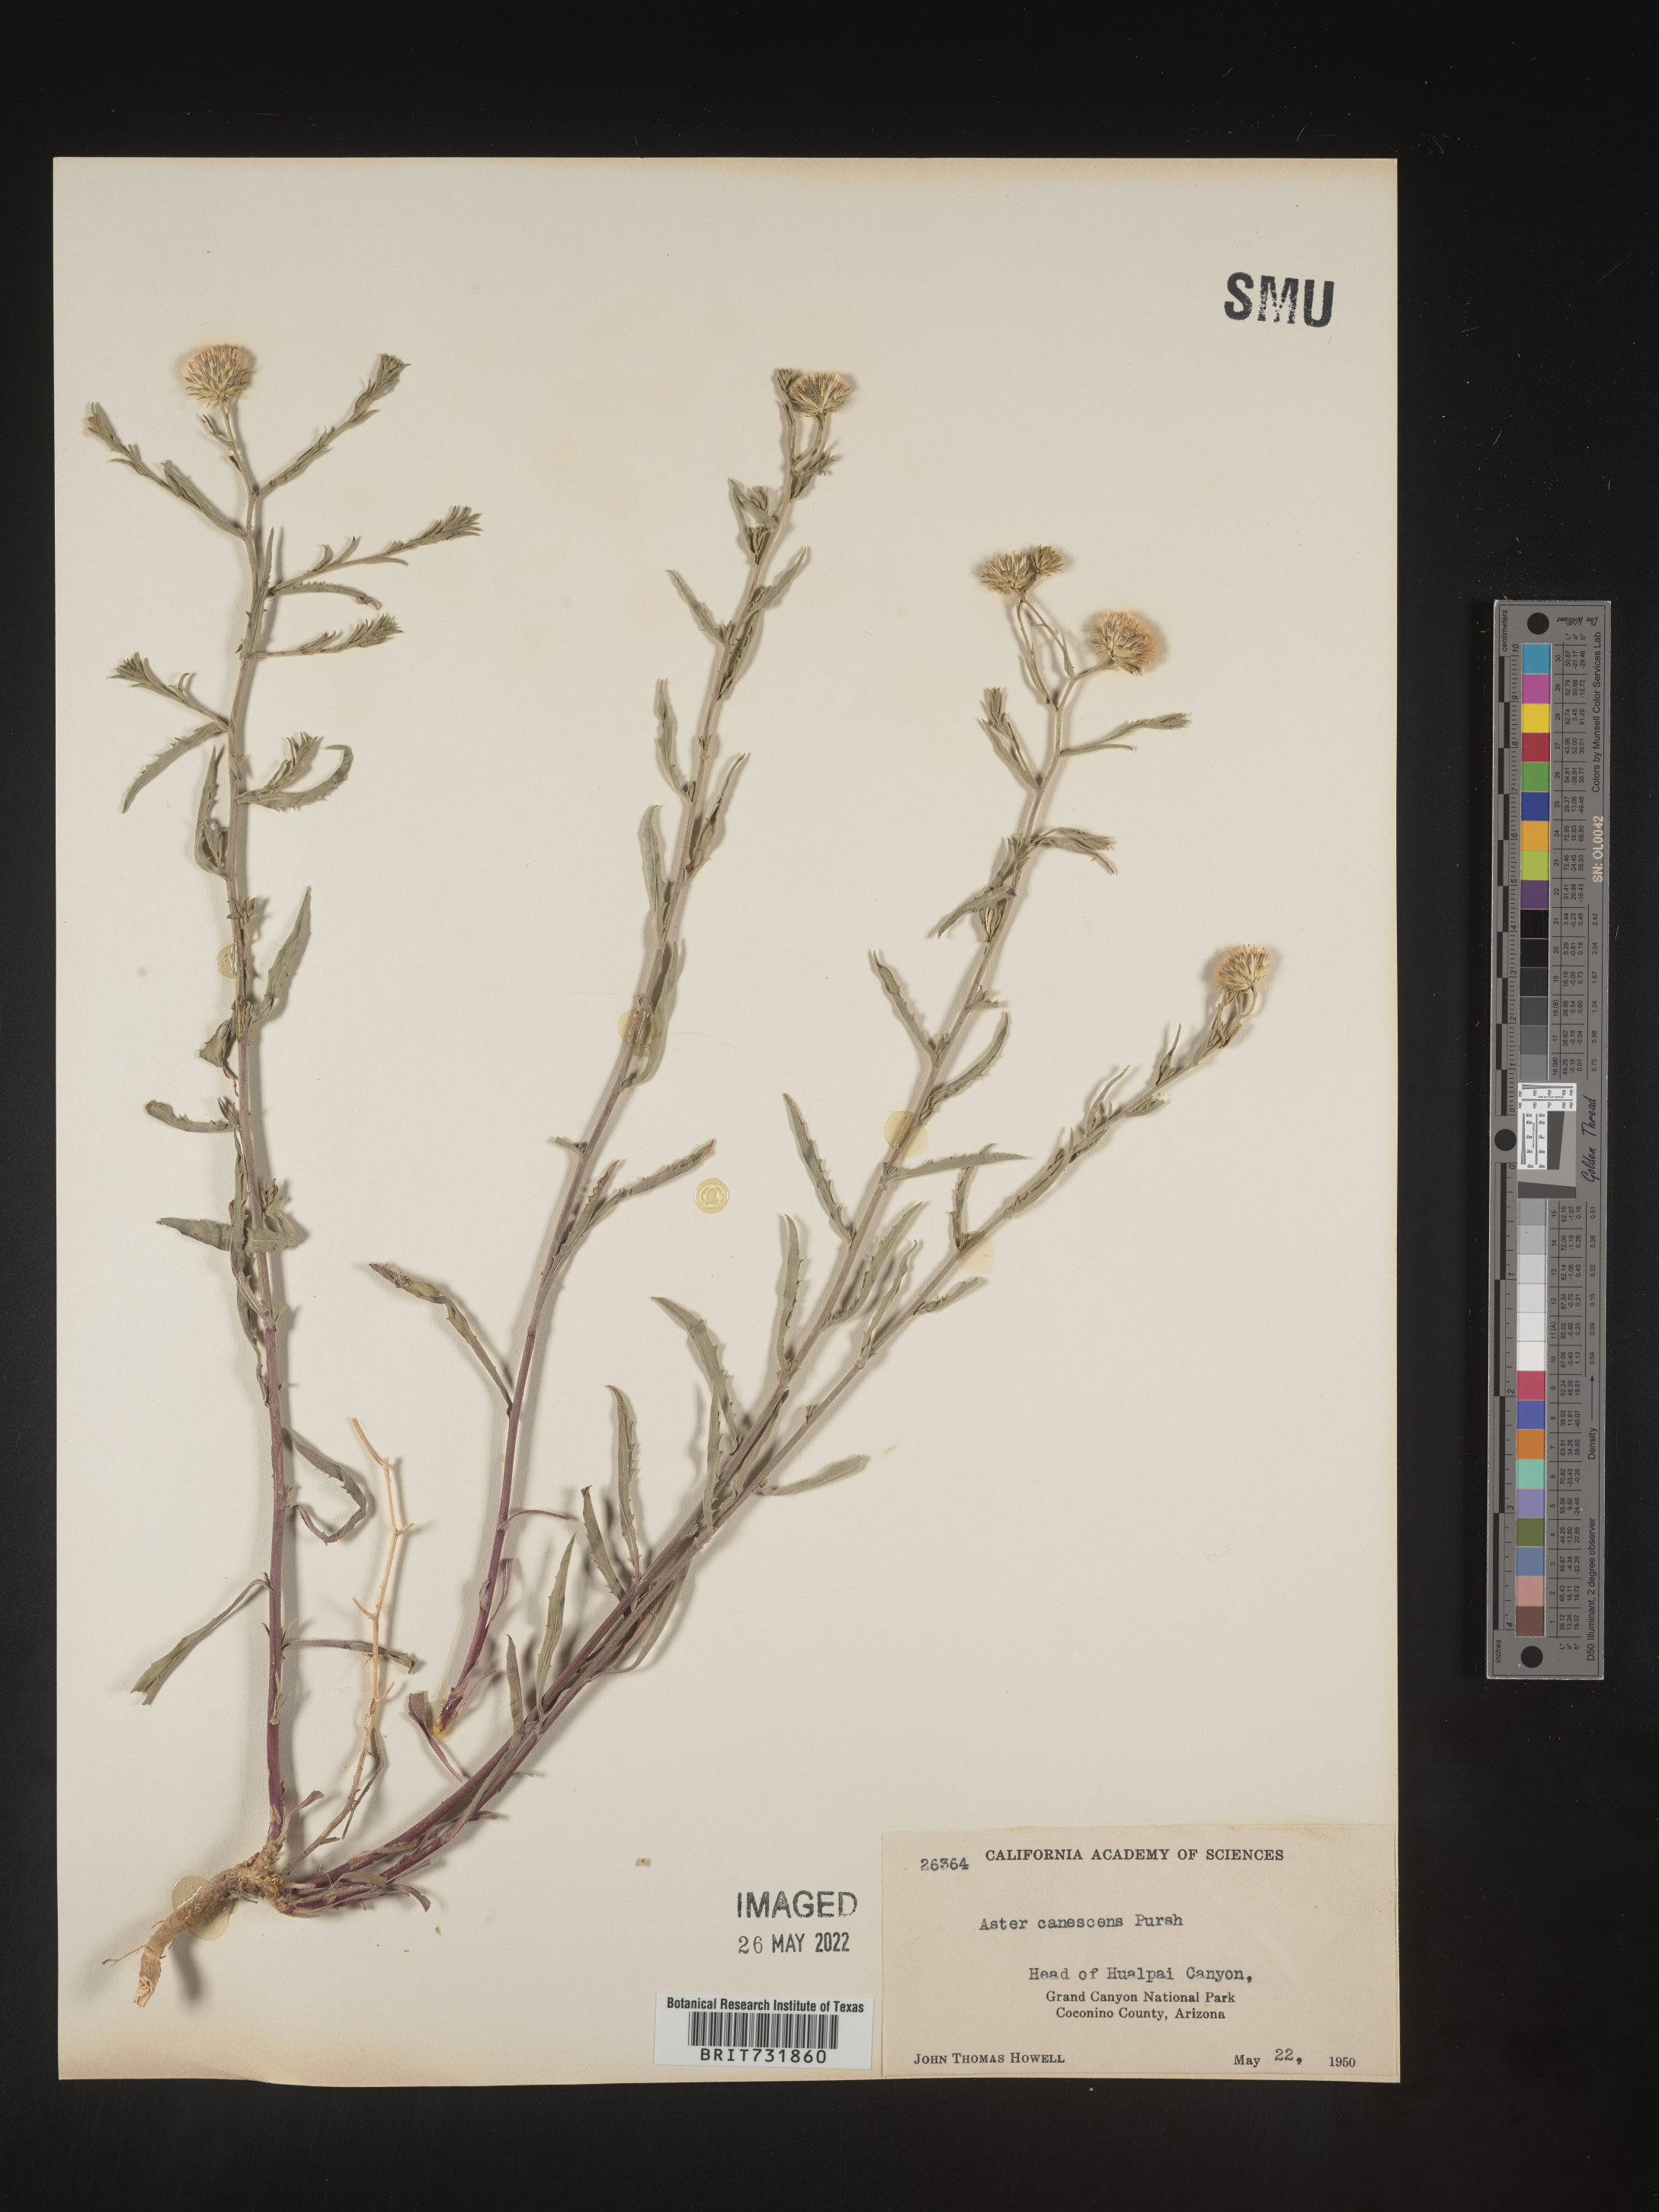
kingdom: Plantae
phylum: Tracheophyta
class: Magnoliopsida
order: Asterales
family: Asteraceae
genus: Dieteria
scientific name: Dieteria canescens
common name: Hoary-aster
